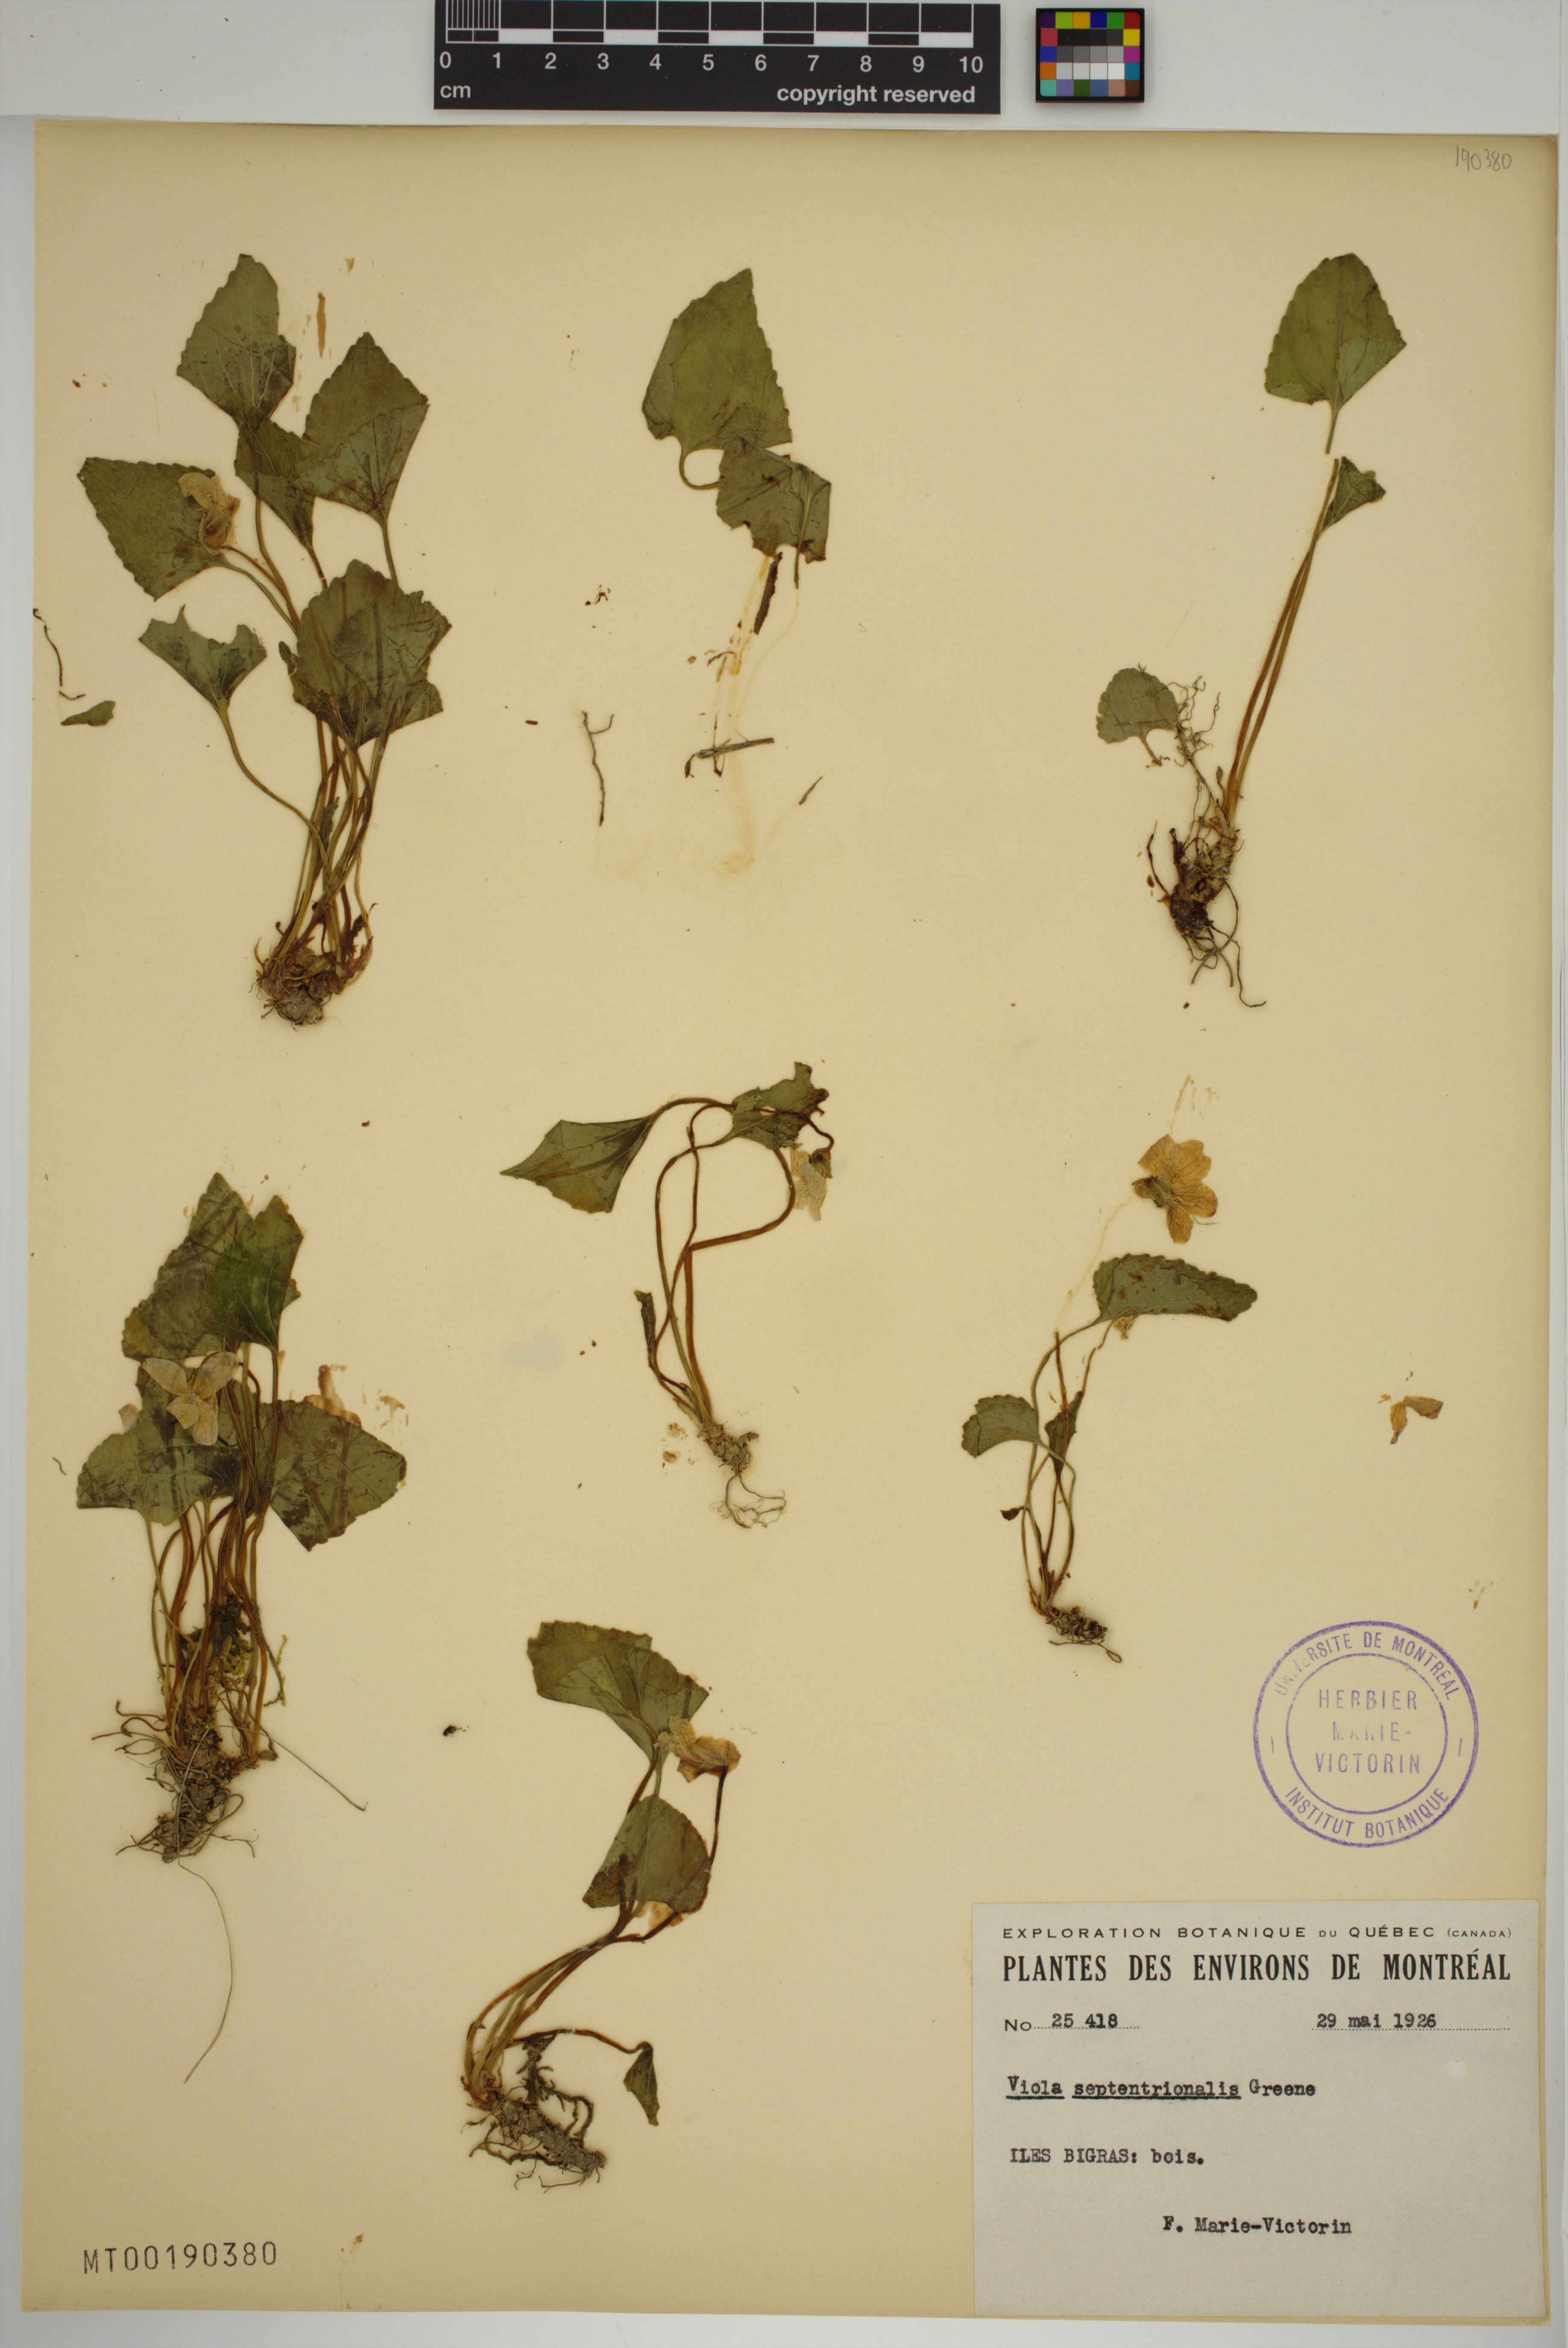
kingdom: Plantae
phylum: Tracheophyta
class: Magnoliopsida
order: Malpighiales
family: Violaceae
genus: Viola
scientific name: Viola sororia
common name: Dooryard violet
